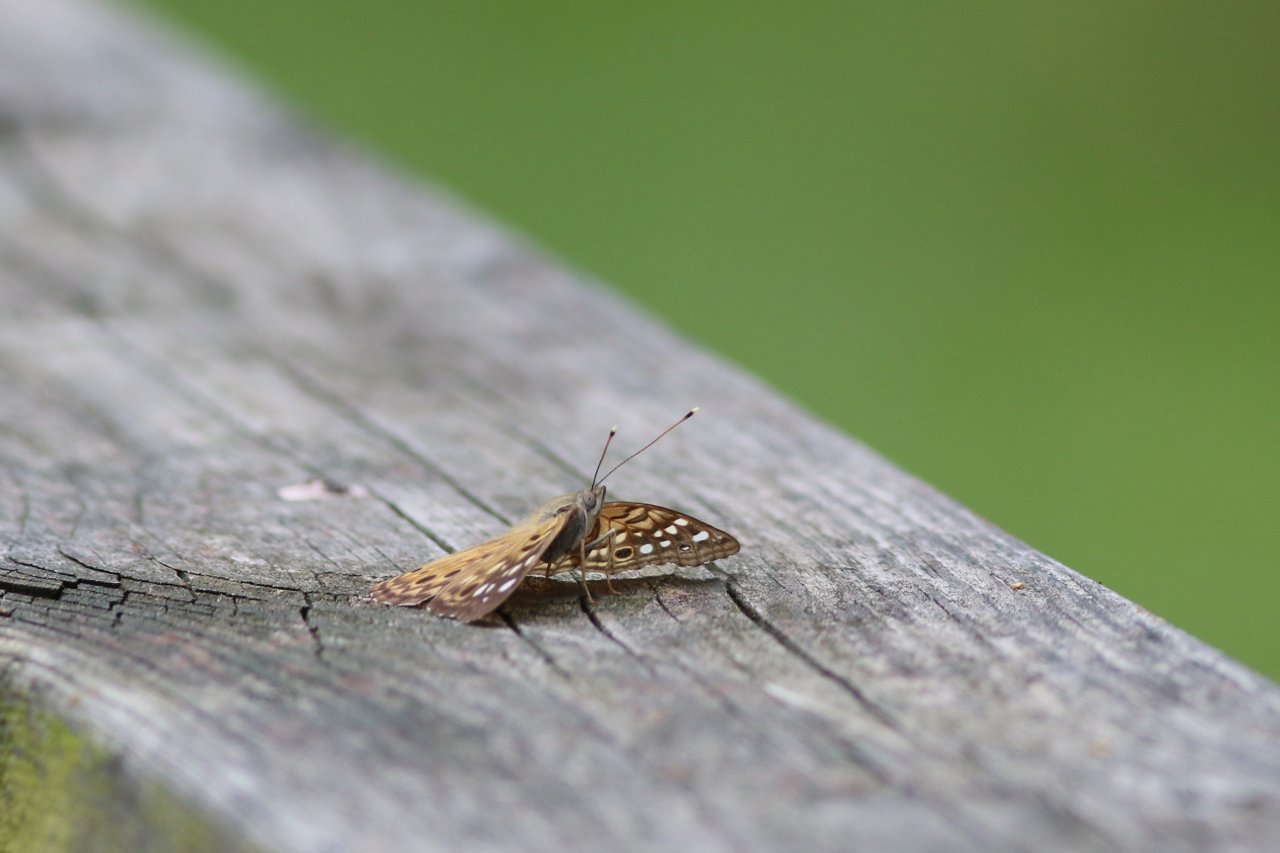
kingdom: Animalia
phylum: Arthropoda
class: Insecta
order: Lepidoptera
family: Nymphalidae
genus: Asterocampa
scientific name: Asterocampa celtis
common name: Hackberry Emperor
